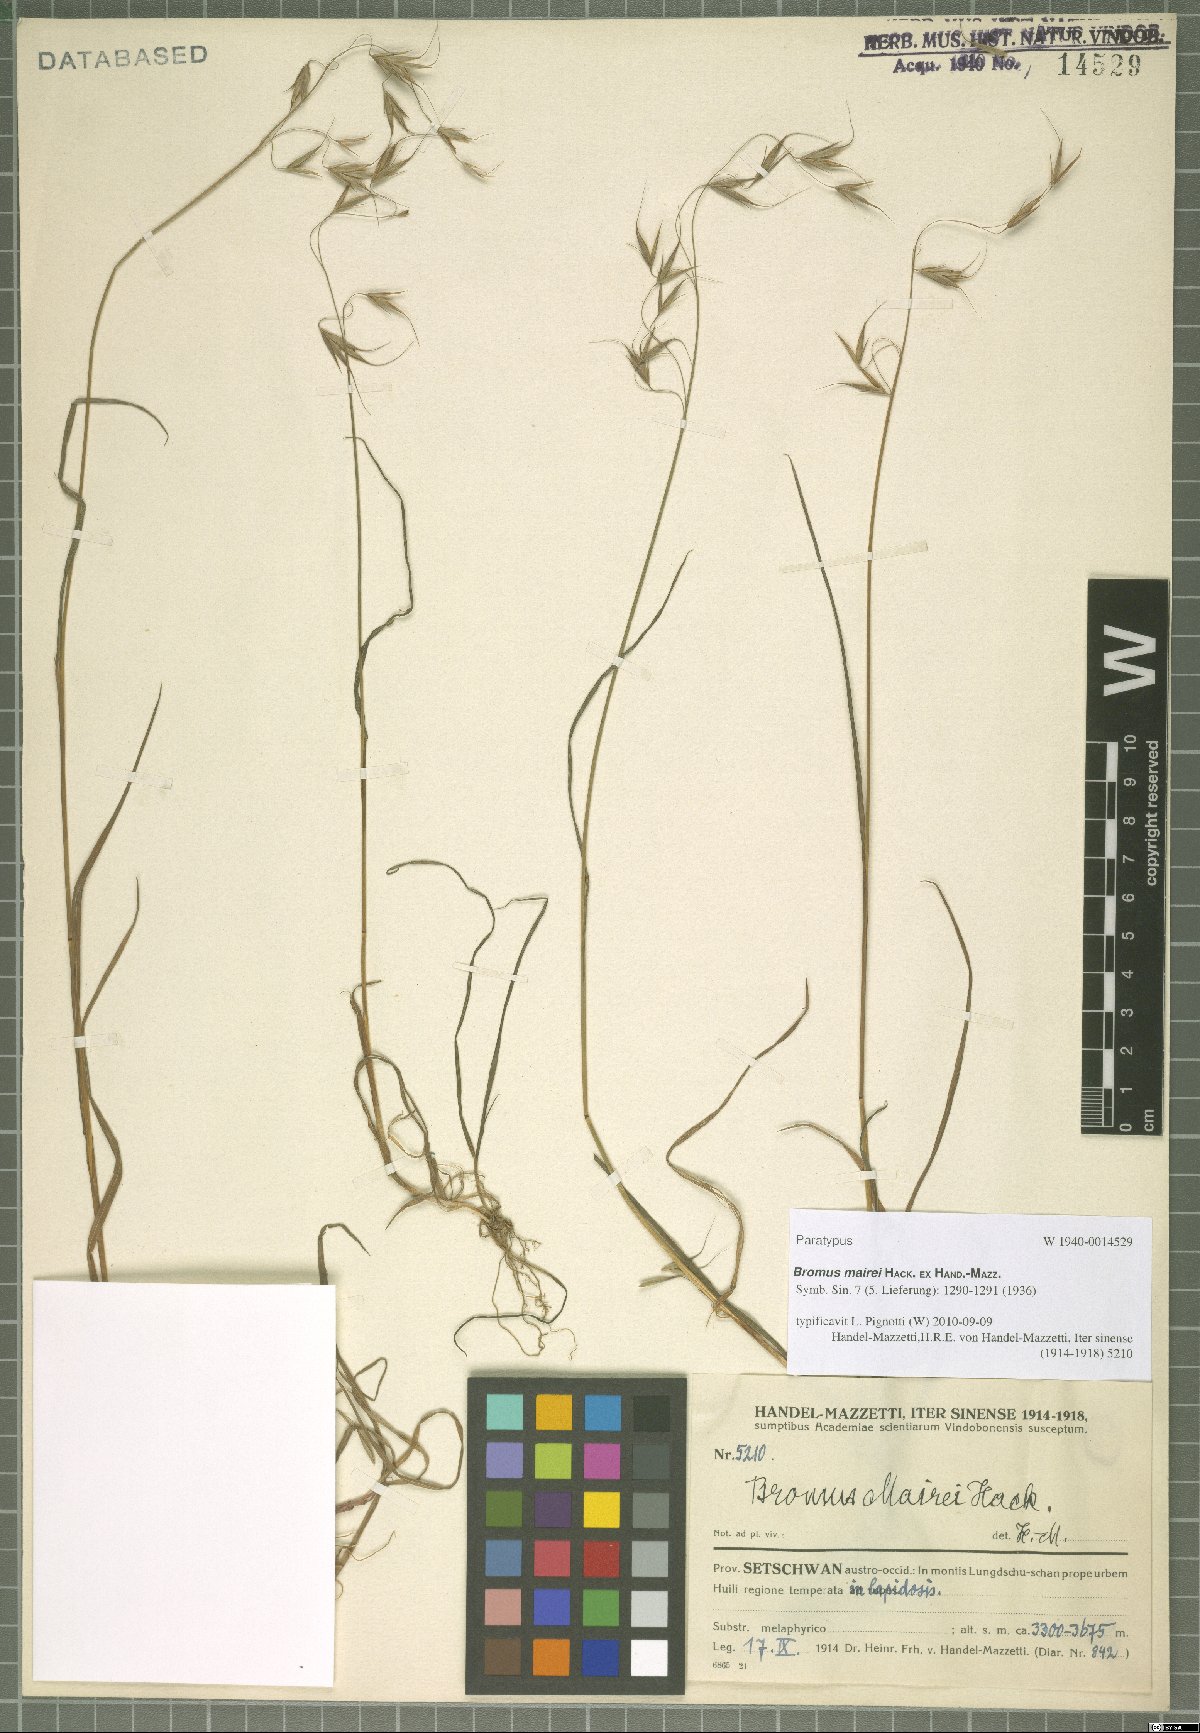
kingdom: Plantae
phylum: Tracheophyta
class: Liliopsida
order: Poales
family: Poaceae
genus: Bromus
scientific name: Bromus mairei
